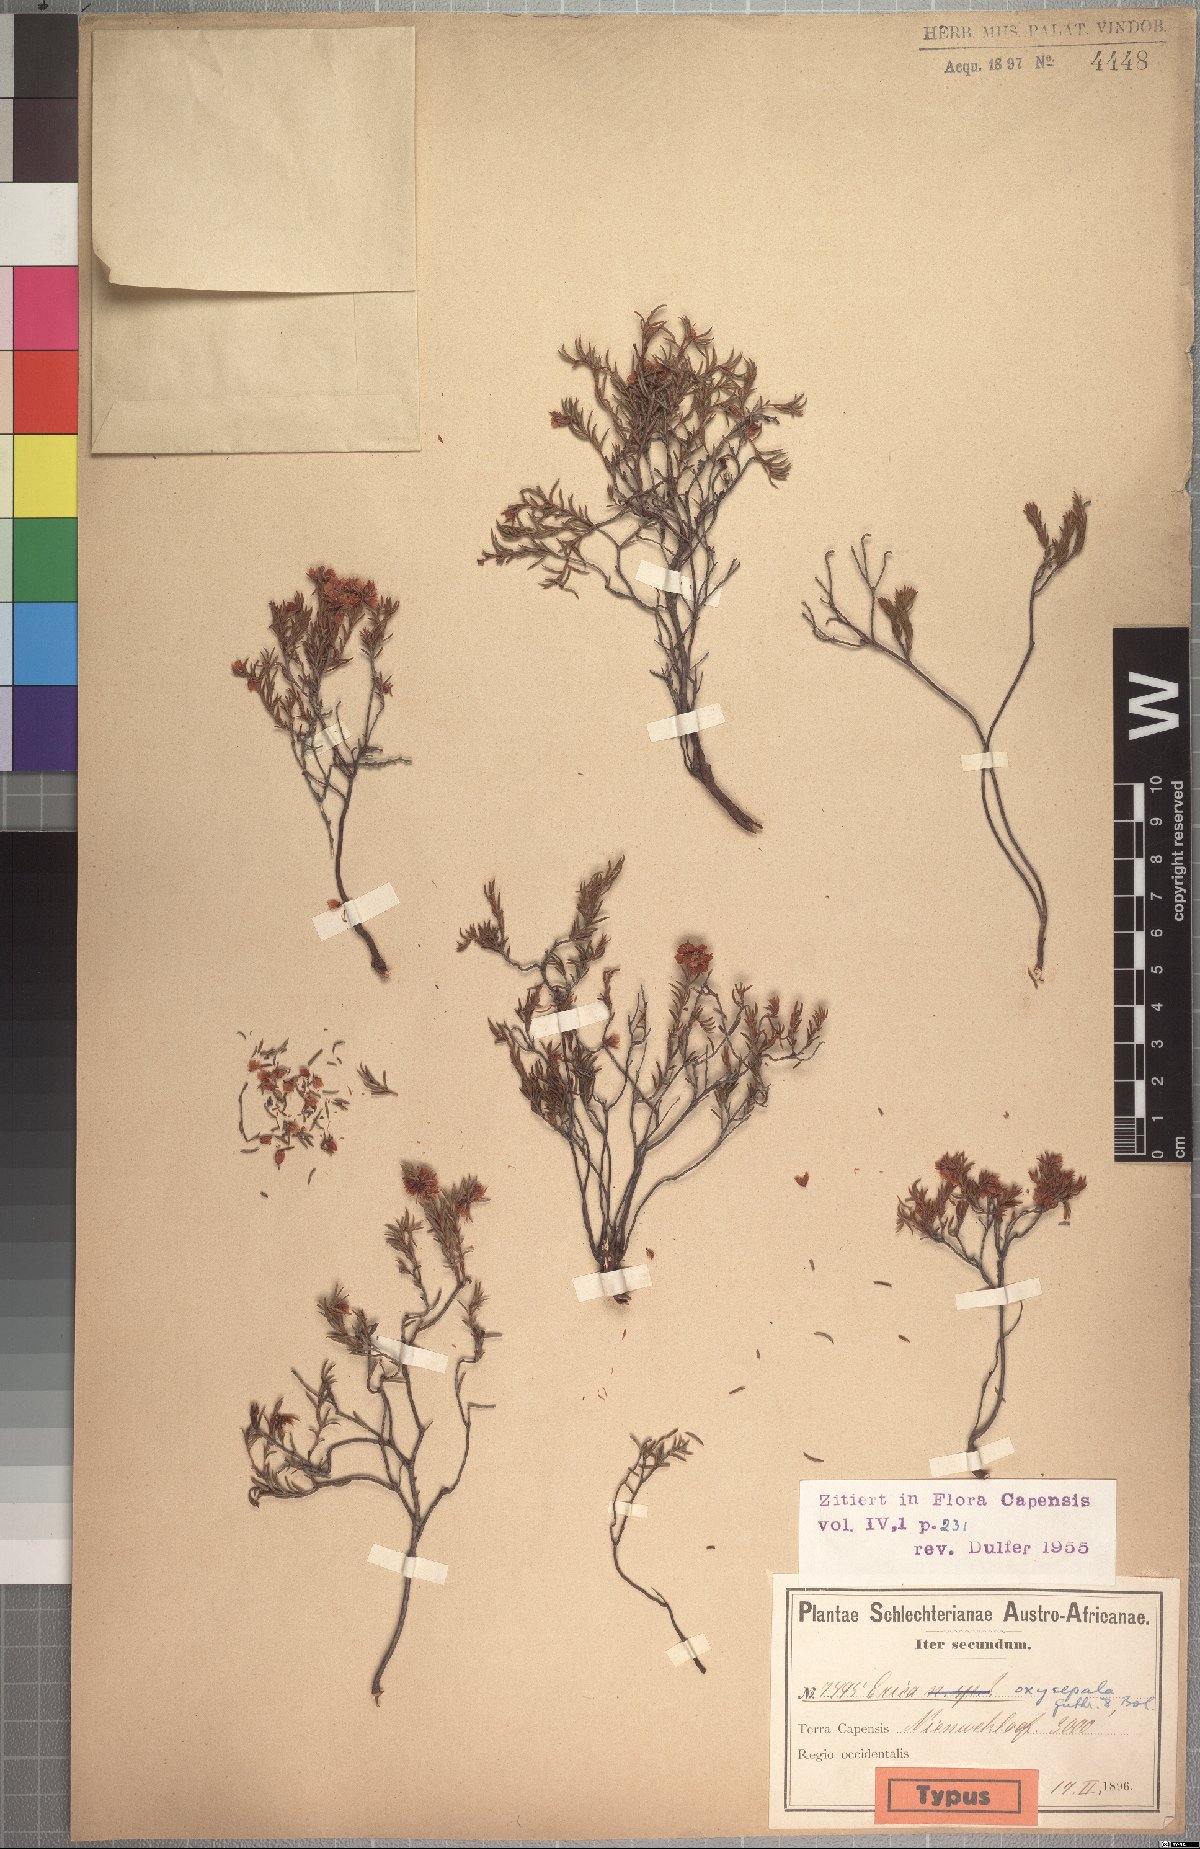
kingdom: Plantae
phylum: Tracheophyta
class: Magnoliopsida
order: Ericales
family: Ericaceae
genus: Erica
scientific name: Erica oxysepala
